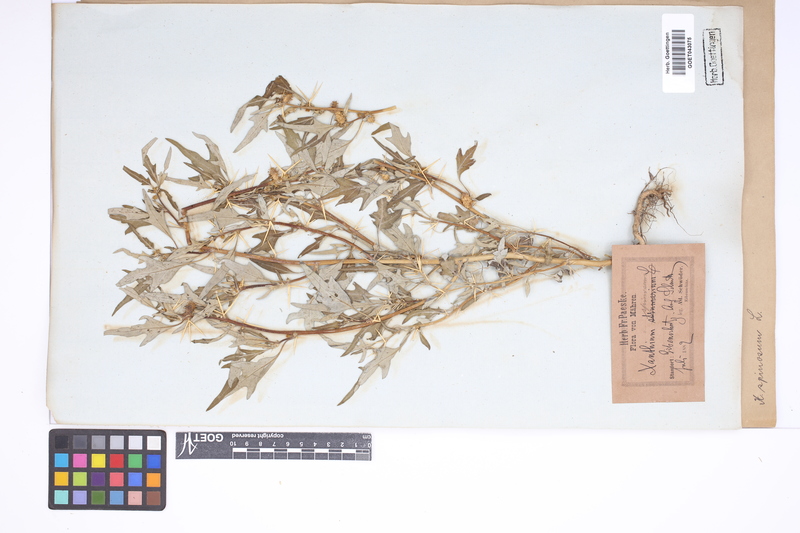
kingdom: Plantae
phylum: Tracheophyta
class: Magnoliopsida
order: Asterales
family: Asteraceae
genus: Xanthium
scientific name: Xanthium spinosum
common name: Spiny cocklebur
